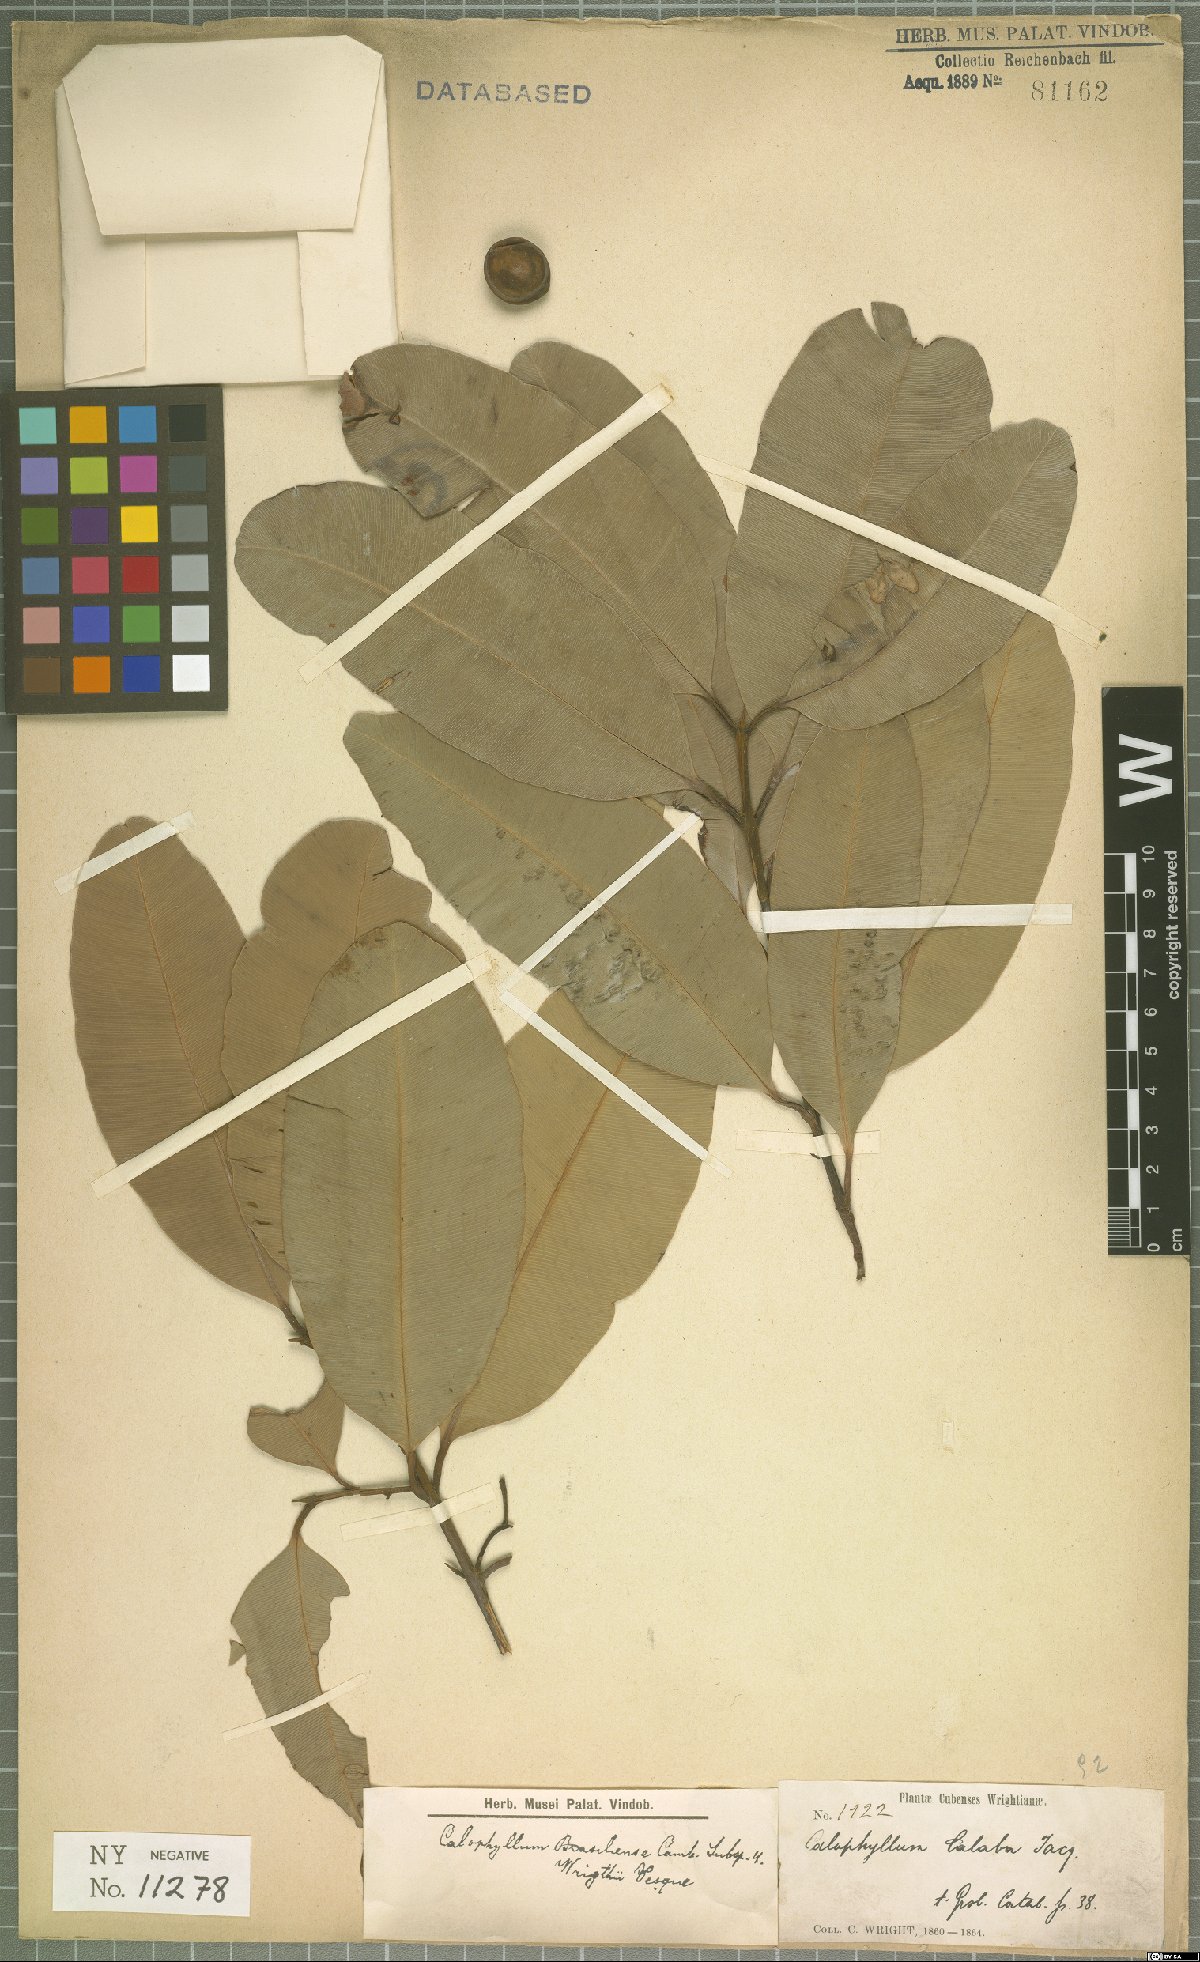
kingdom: Plantae
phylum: Tracheophyta
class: Magnoliopsida
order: Malpighiales
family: Calophyllaceae
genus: Calophyllum
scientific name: Calophyllum brasiliense
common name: Santa maria
